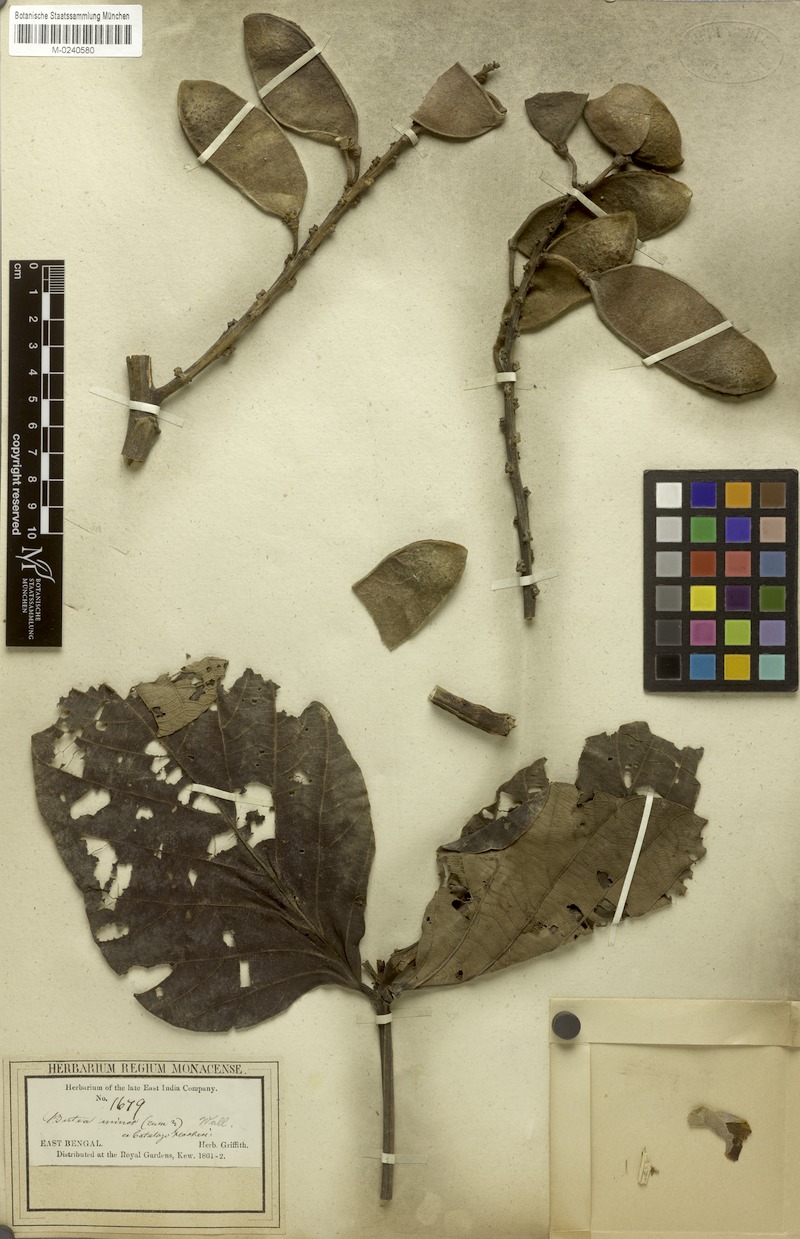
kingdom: Plantae
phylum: Tracheophyta
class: Magnoliopsida
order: Fabales
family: Fabaceae
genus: Butea
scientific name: Butea buteiformis
